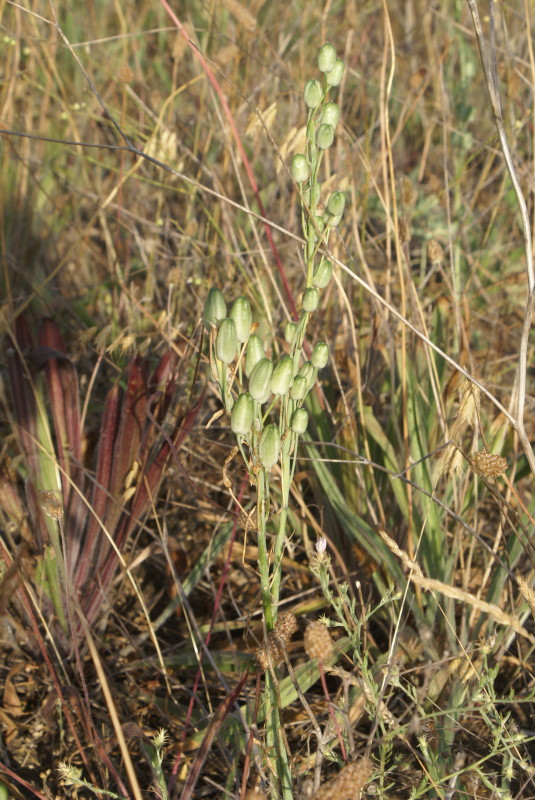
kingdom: Plantae
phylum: Tracheophyta
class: Liliopsida
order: Asparagales
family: Asparagaceae
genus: Ornithogalum
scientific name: Ornithogalum
